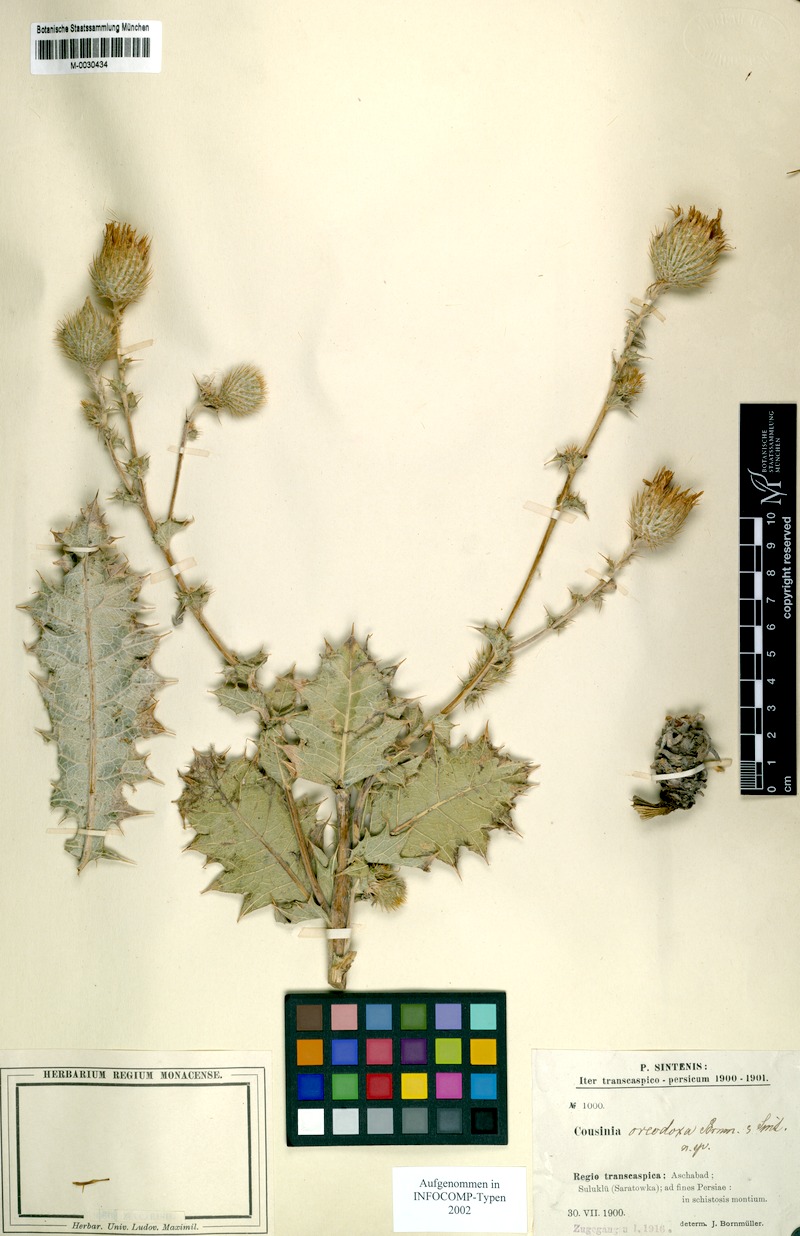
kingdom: Plantae
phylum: Tracheophyta
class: Magnoliopsida
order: Asterales
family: Asteraceae
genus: Cousinia
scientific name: Cousinia oreodoxa
